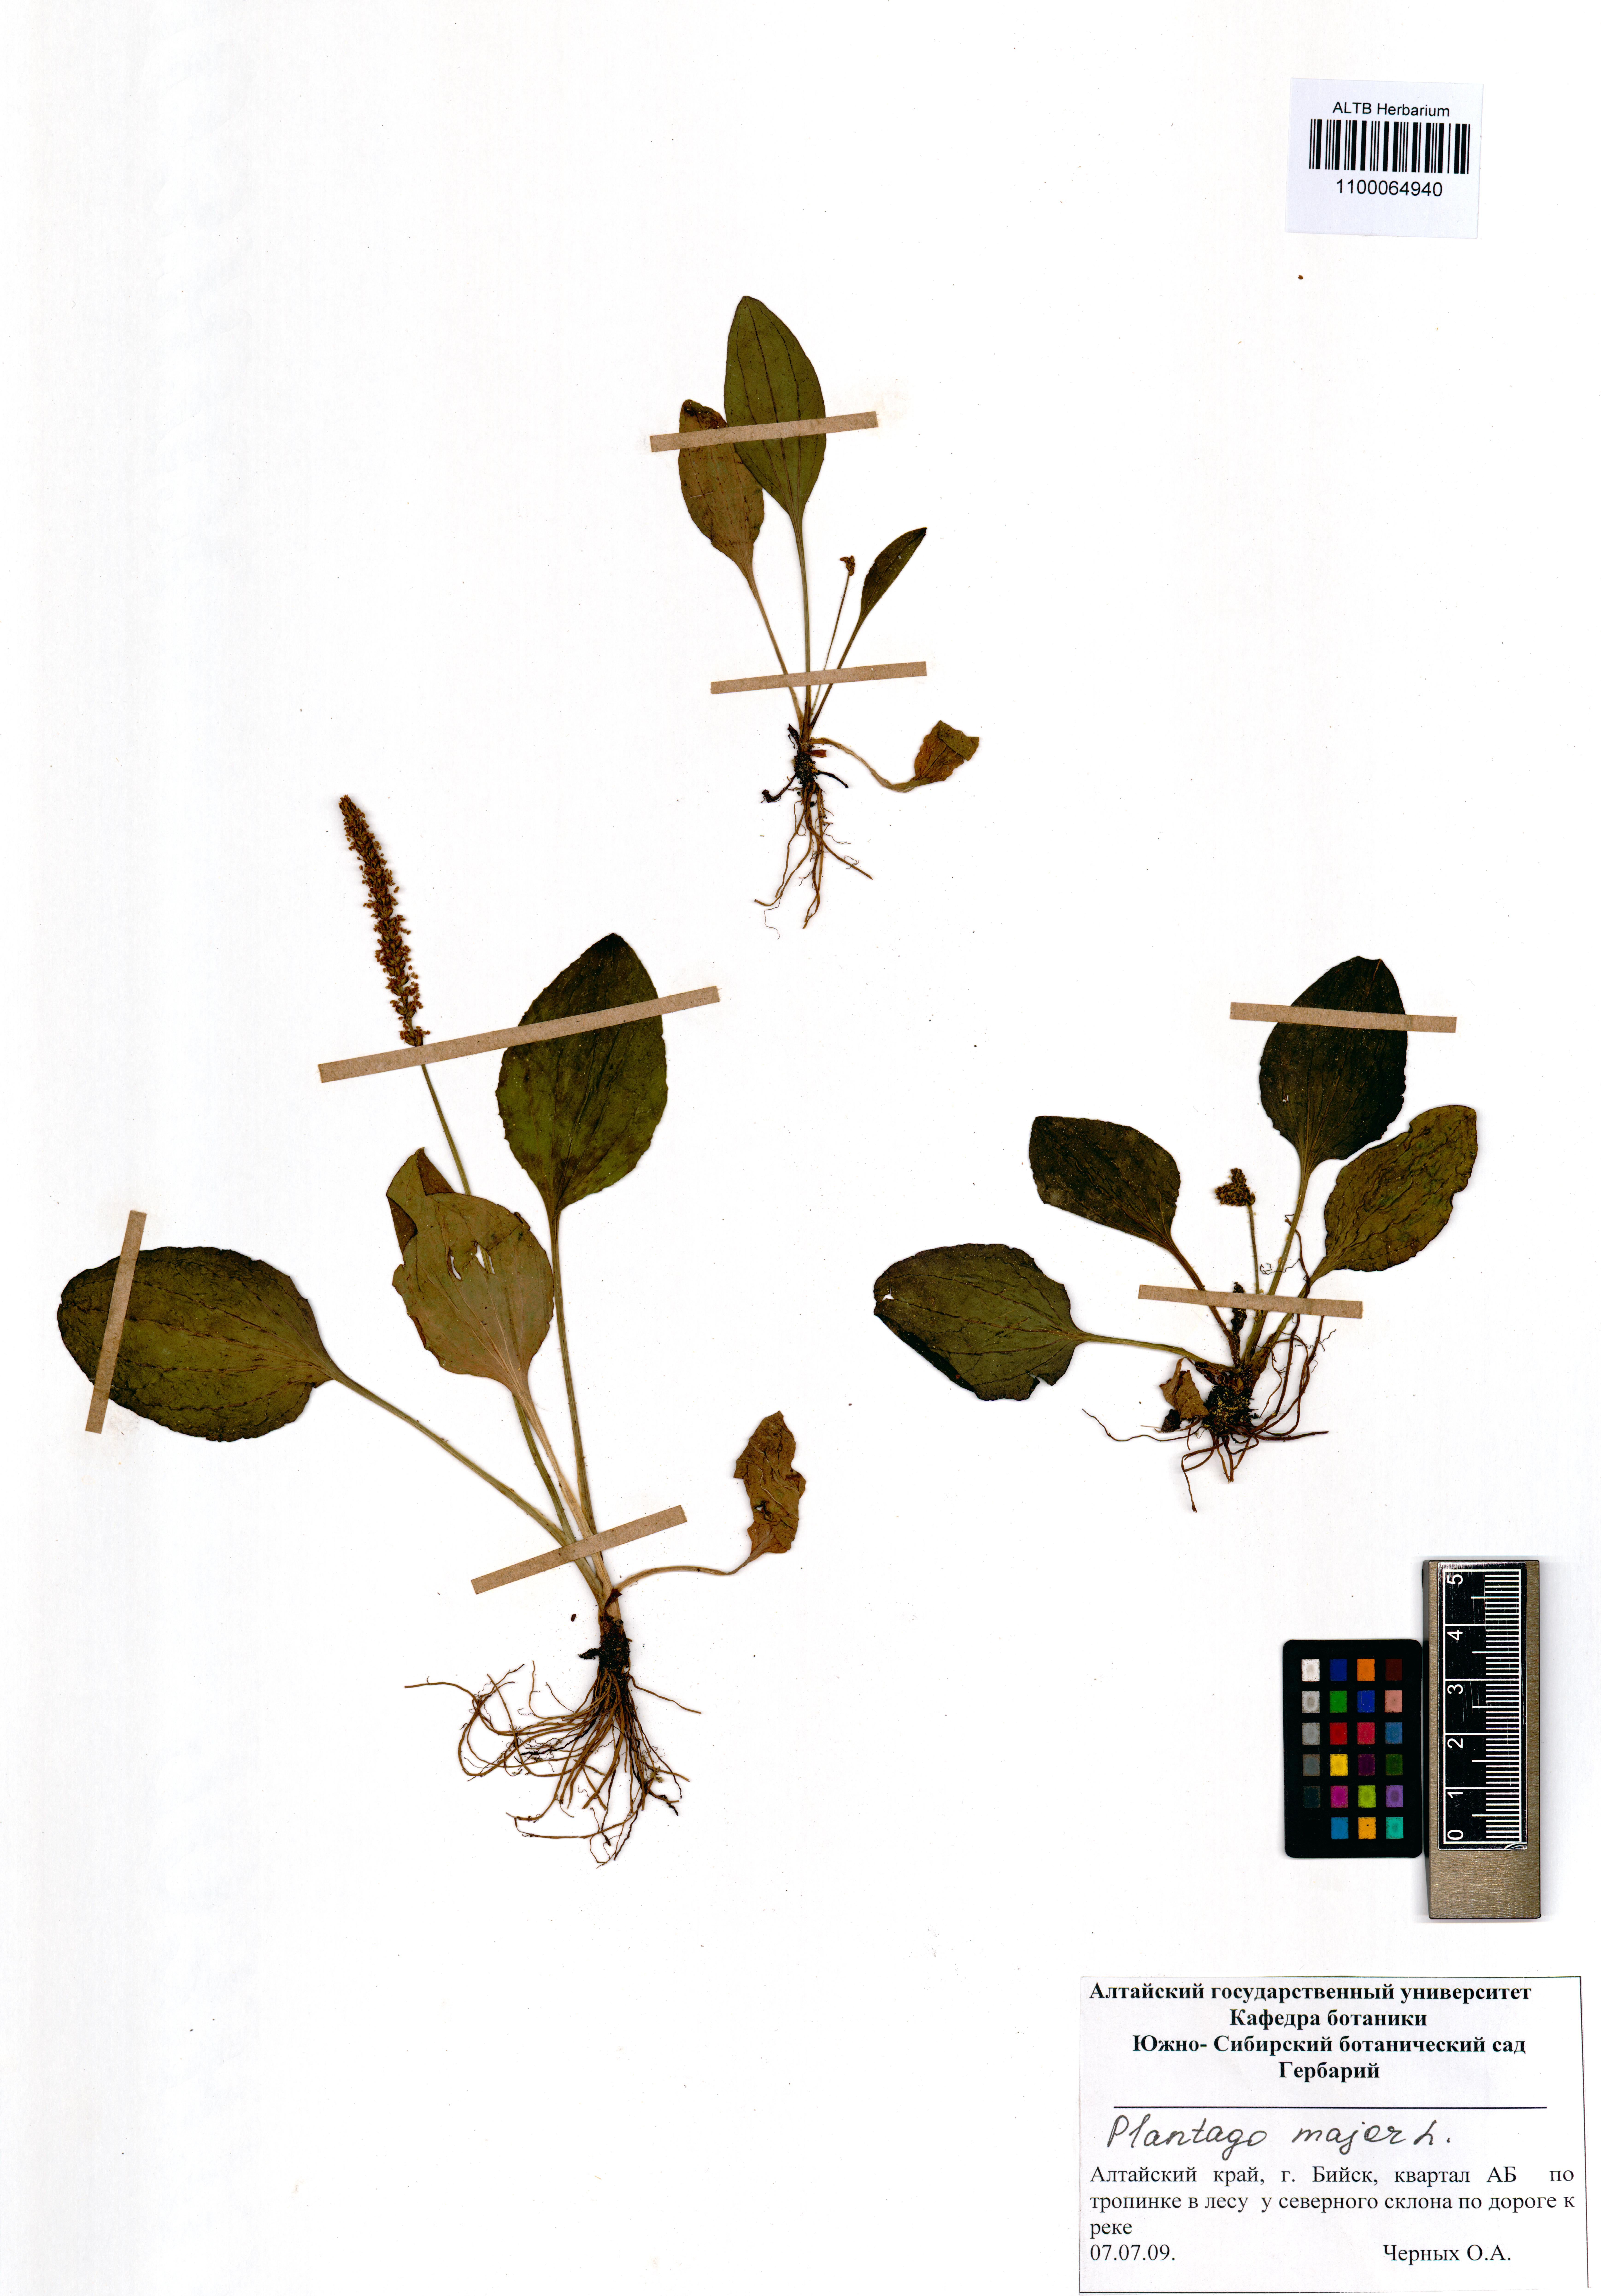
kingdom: Plantae
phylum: Tracheophyta
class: Magnoliopsida
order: Lamiales
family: Plantaginaceae
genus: Plantago
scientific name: Plantago major
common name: Common plantain
